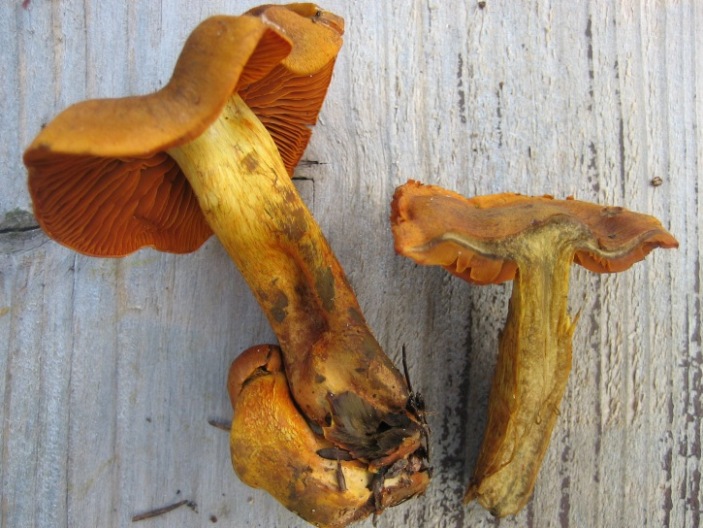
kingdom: Fungi
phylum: Basidiomycota
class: Agaricomycetes
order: Agaricales
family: Cortinariaceae
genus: Cortinarius
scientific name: Cortinarius malicorius
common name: grønkødet slørhat
